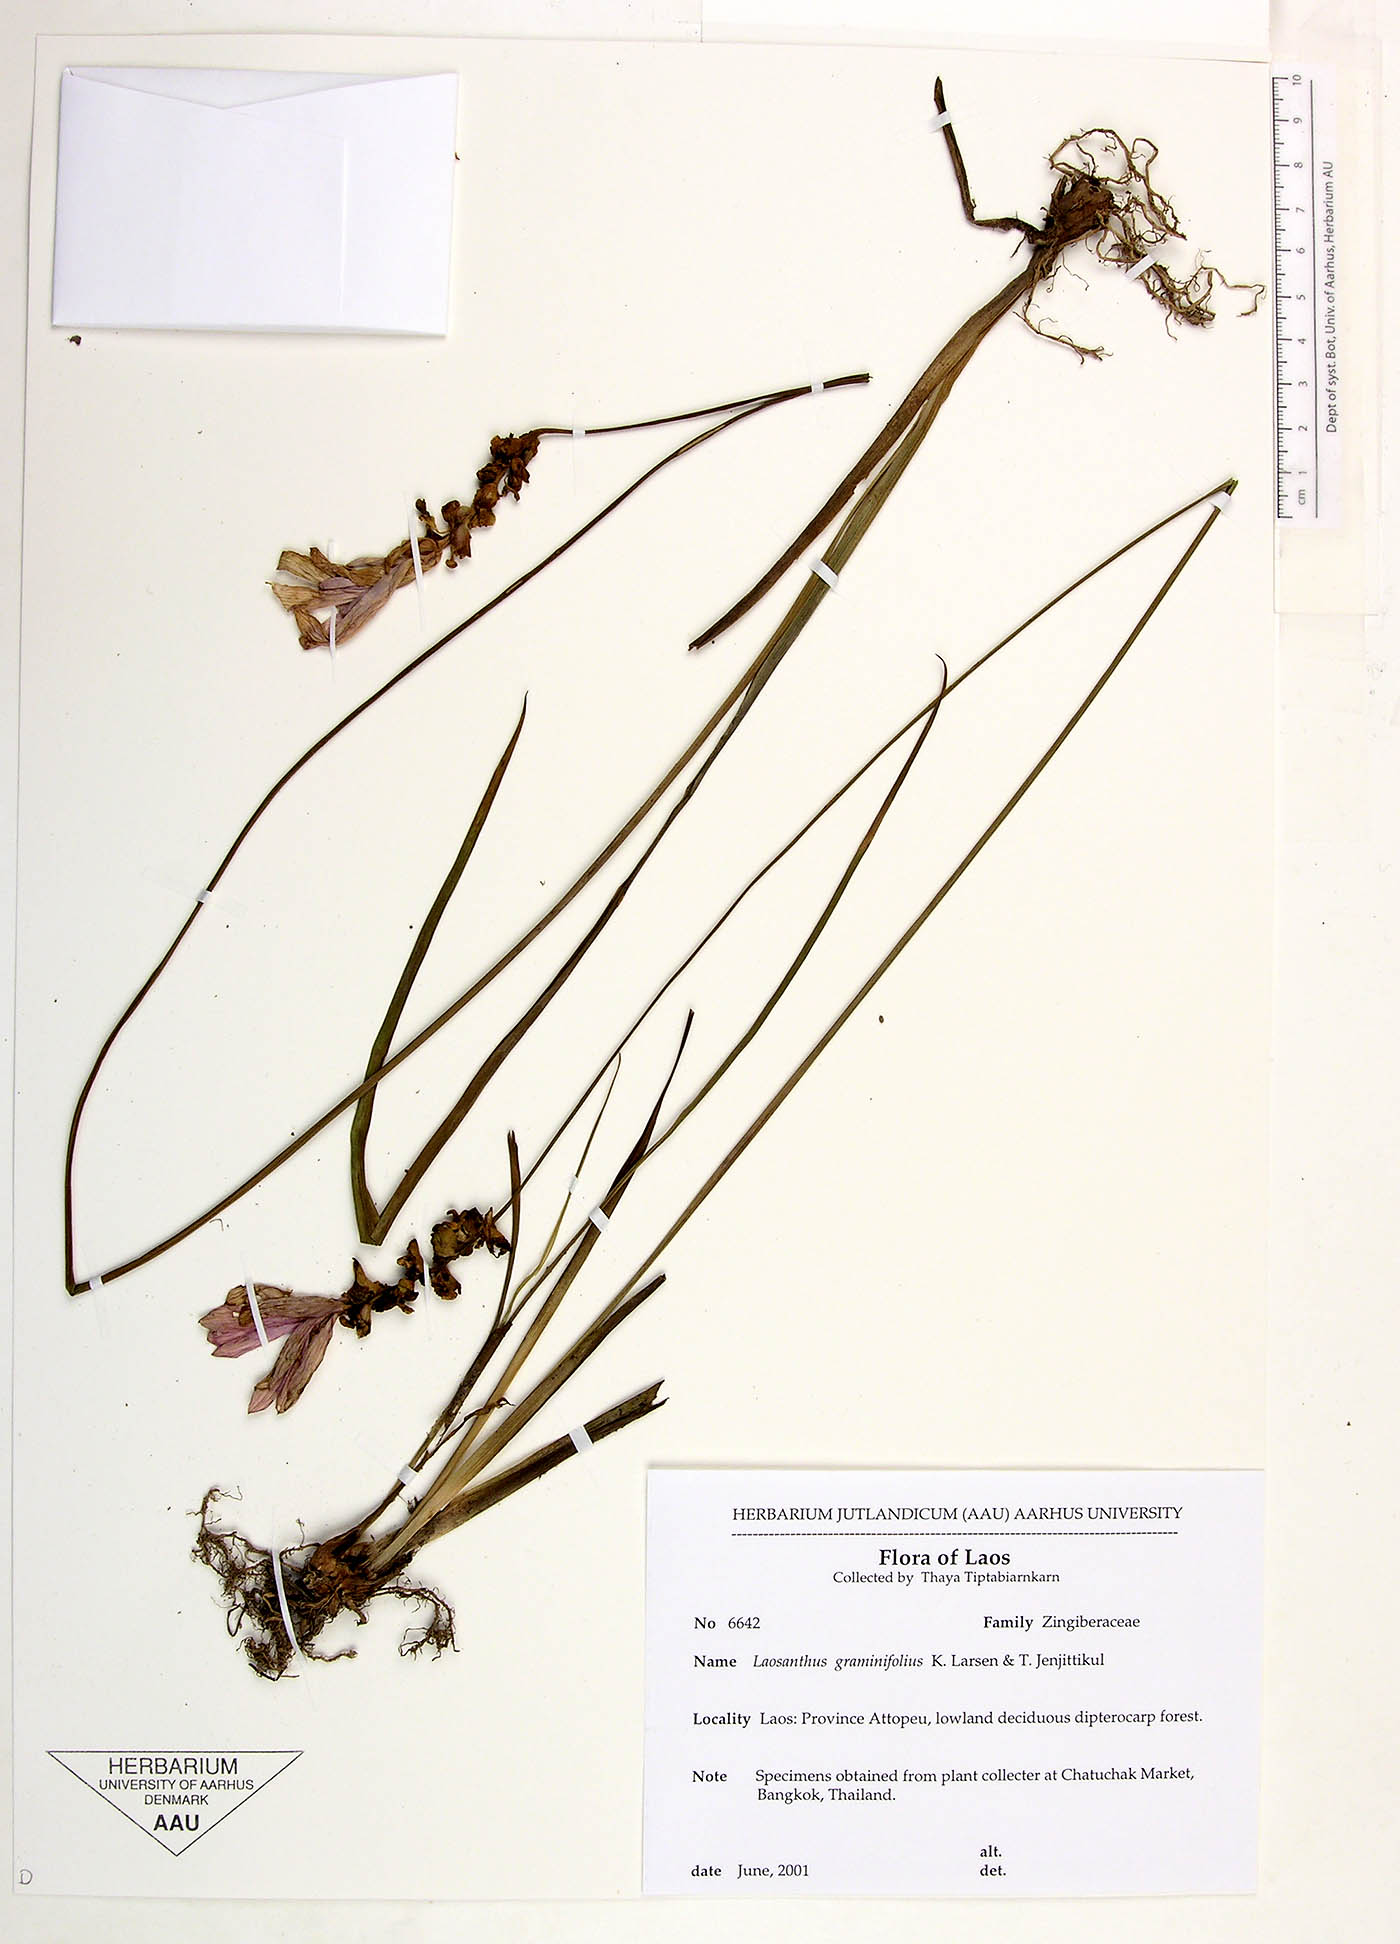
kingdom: Plantae
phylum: Tracheophyta
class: Liliopsida
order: Zingiberales
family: Zingiberaceae
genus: Curcuma
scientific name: Curcuma graminifolia
